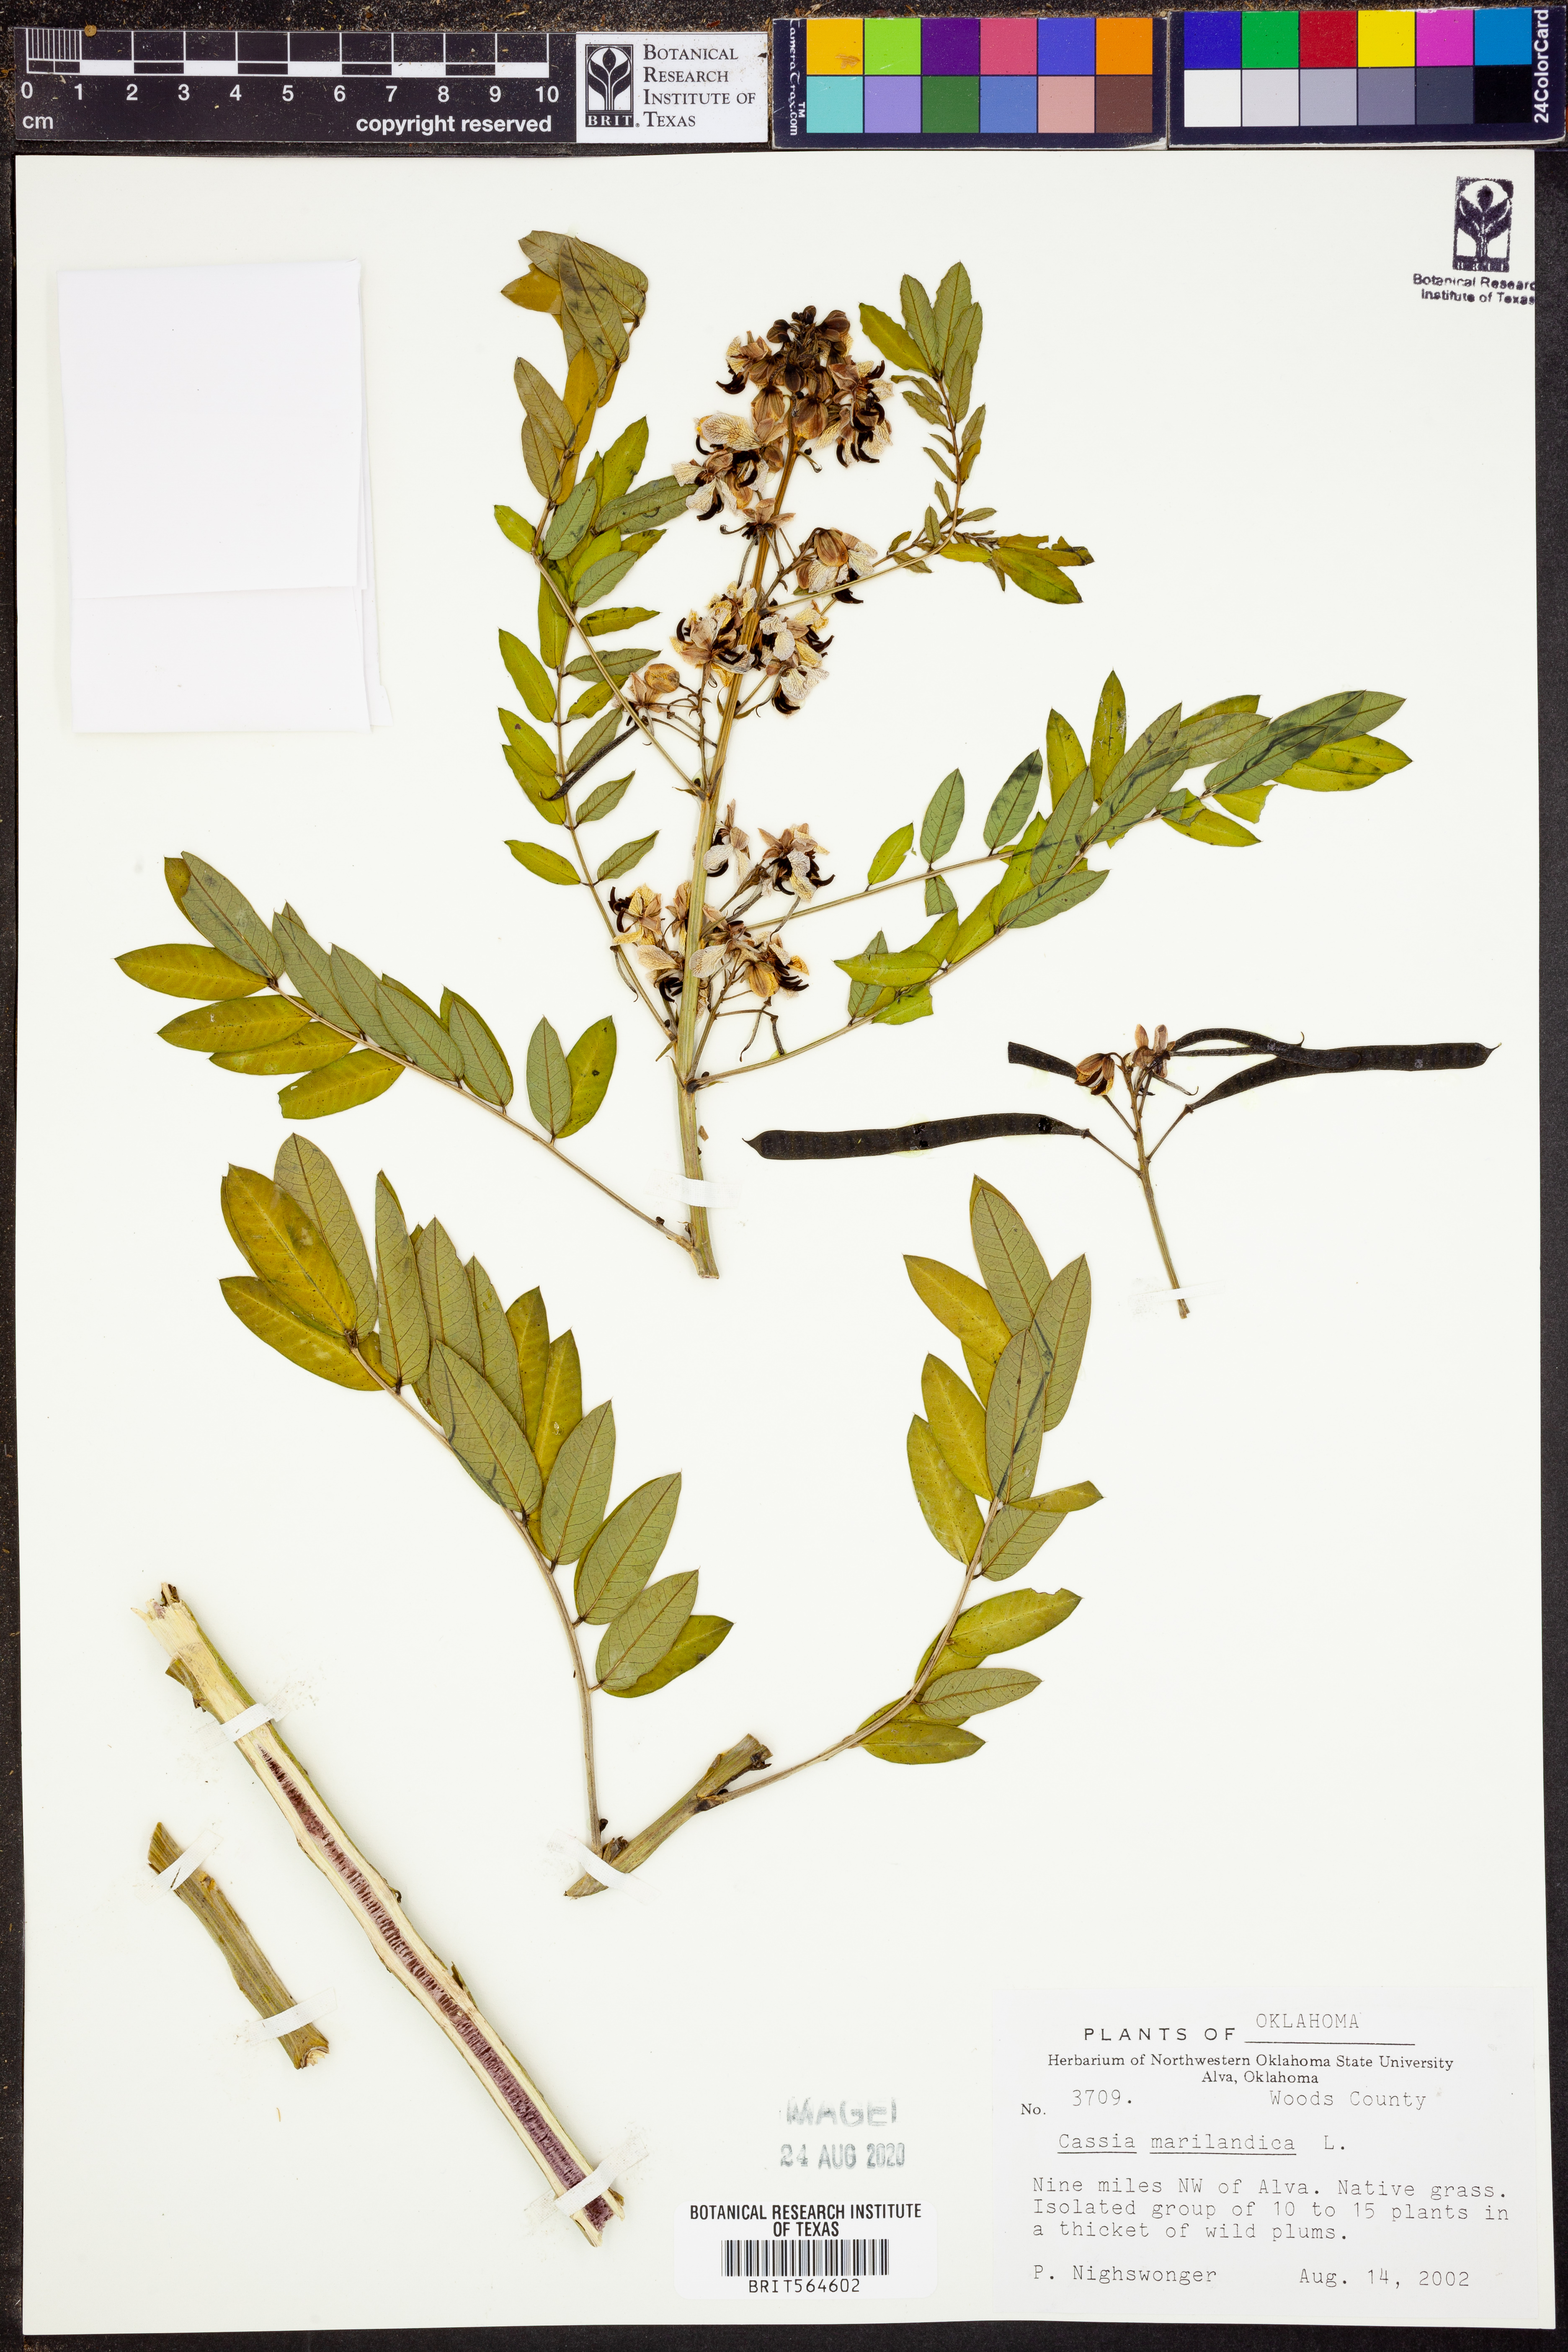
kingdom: Plantae
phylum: Tracheophyta
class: Magnoliopsida
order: Fabales
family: Fabaceae
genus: Senna
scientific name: Senna marilandica
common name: American senna
